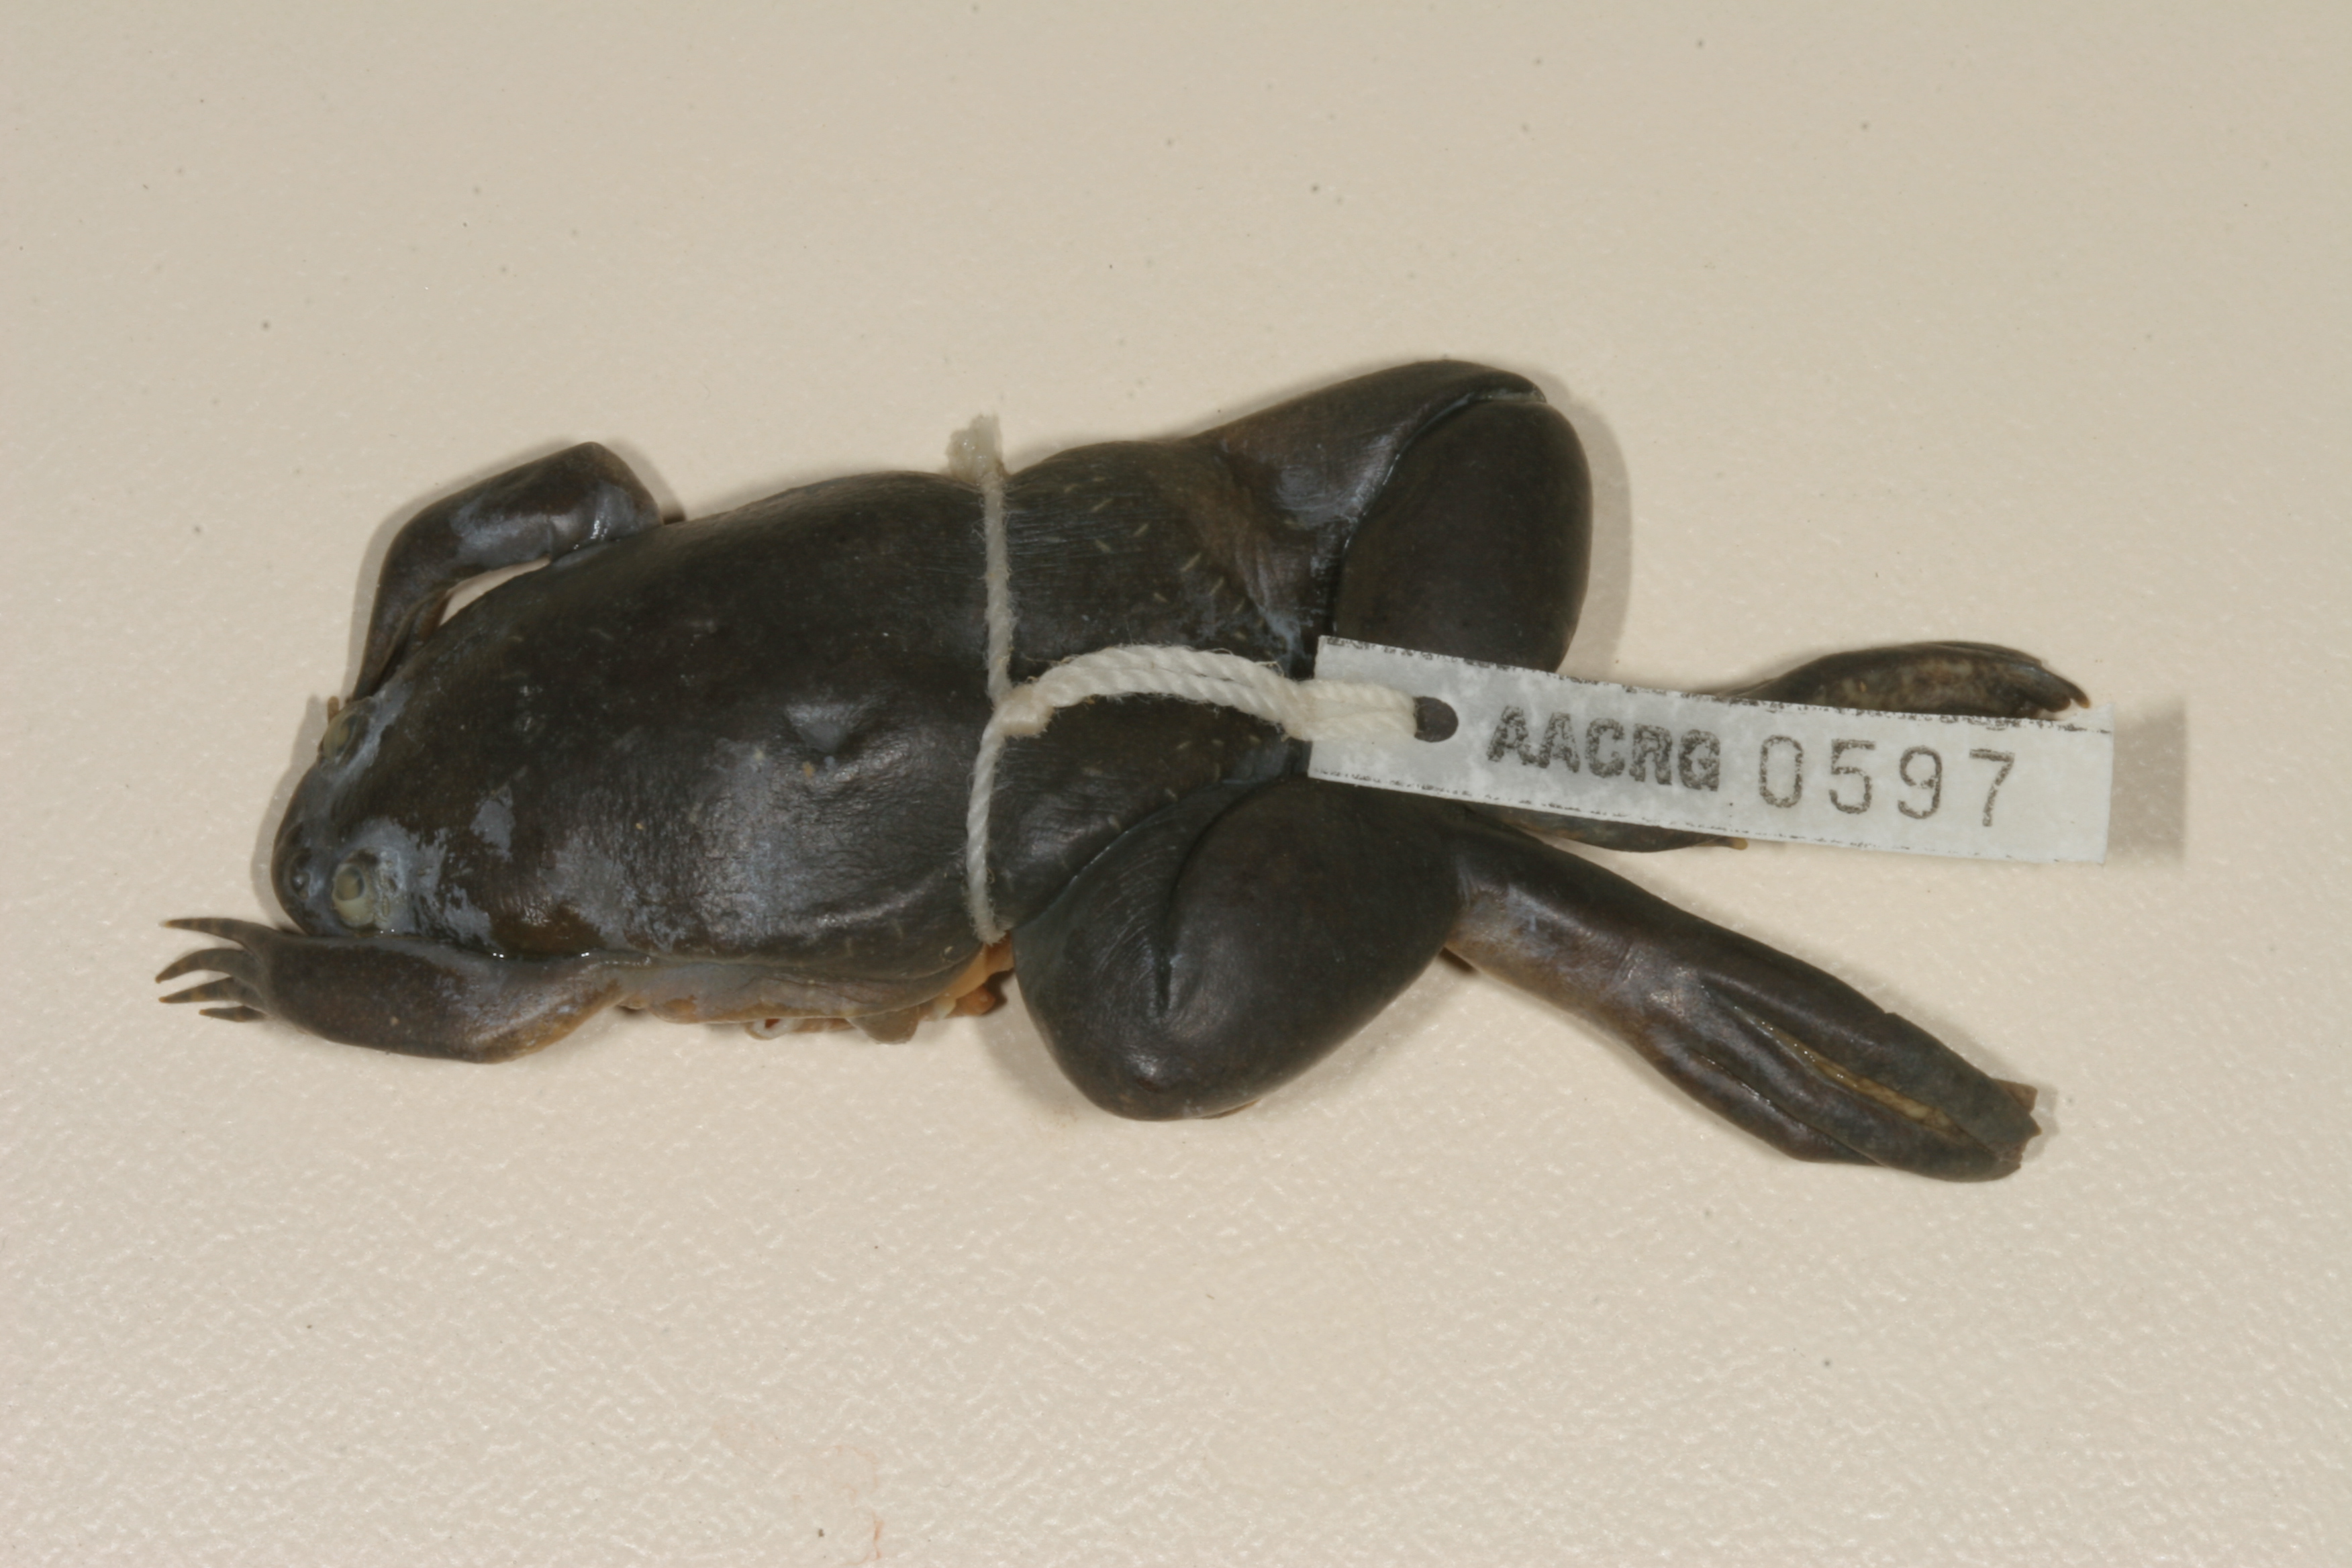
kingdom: Animalia
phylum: Chordata
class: Amphibia
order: Anura
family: Pipidae
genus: Xenopus
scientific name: Xenopus muelleri
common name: Muller's clawed frog
